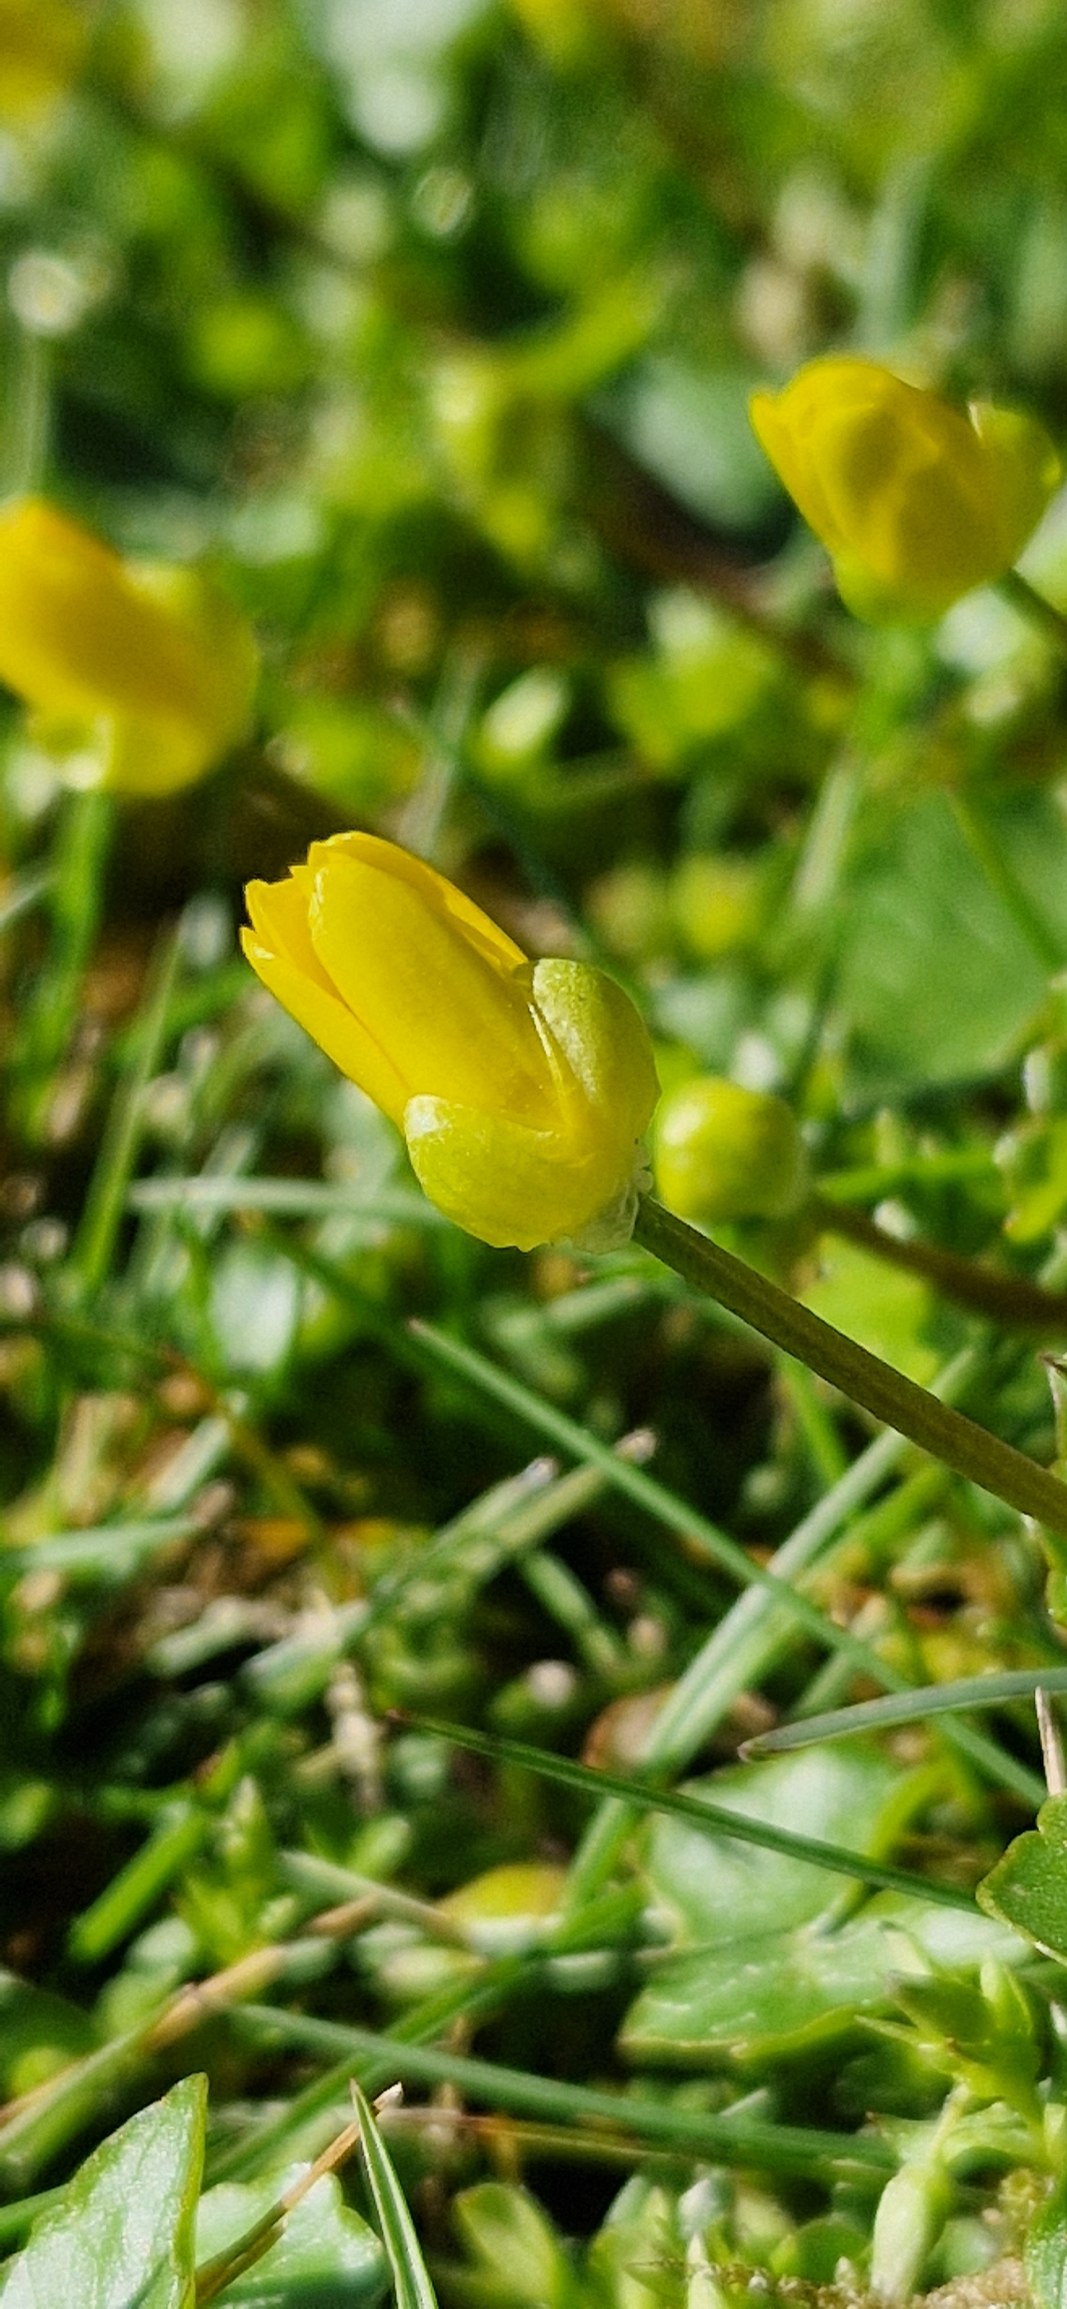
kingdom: Plantae
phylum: Tracheophyta
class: Magnoliopsida
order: Ranunculales
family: Ranunculaceae
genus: Ficaria
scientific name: Ficaria verna
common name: Vorterod
